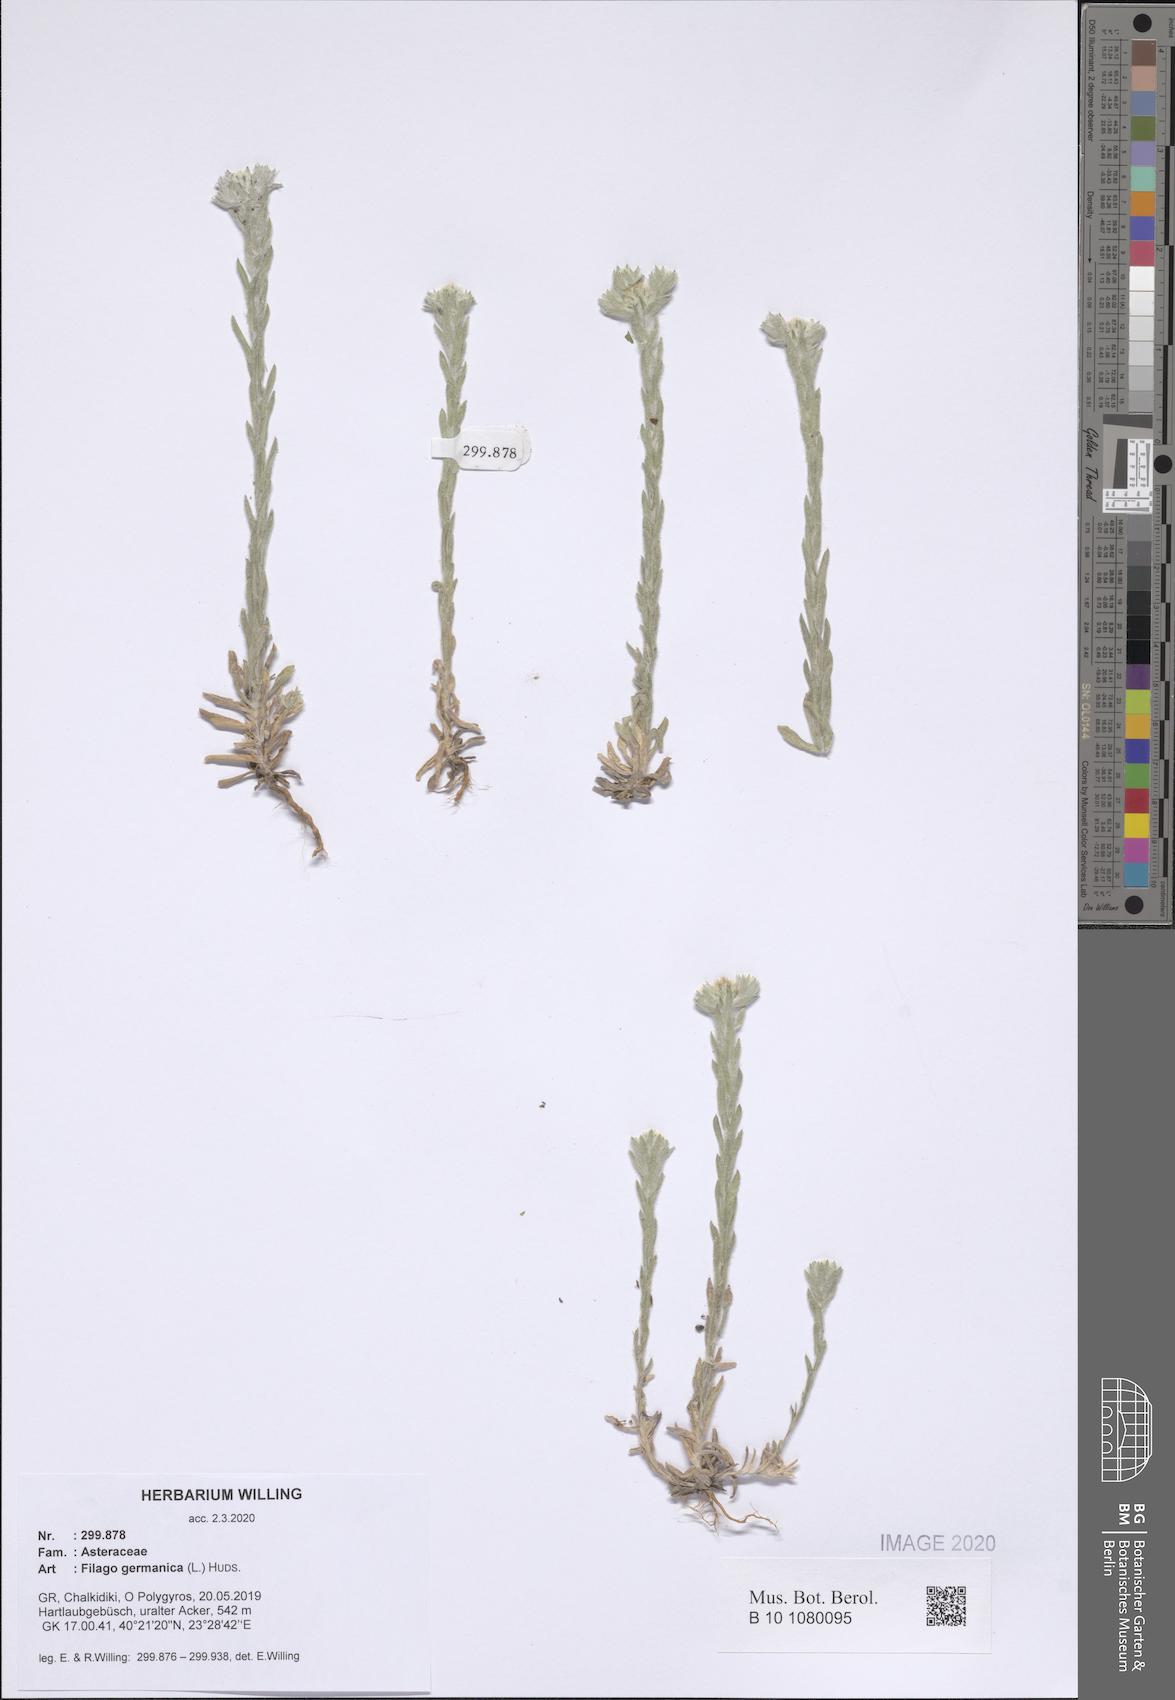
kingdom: Plantae
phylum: Tracheophyta
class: Magnoliopsida
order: Asterales
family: Asteraceae
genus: Filago
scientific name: Filago germanica
